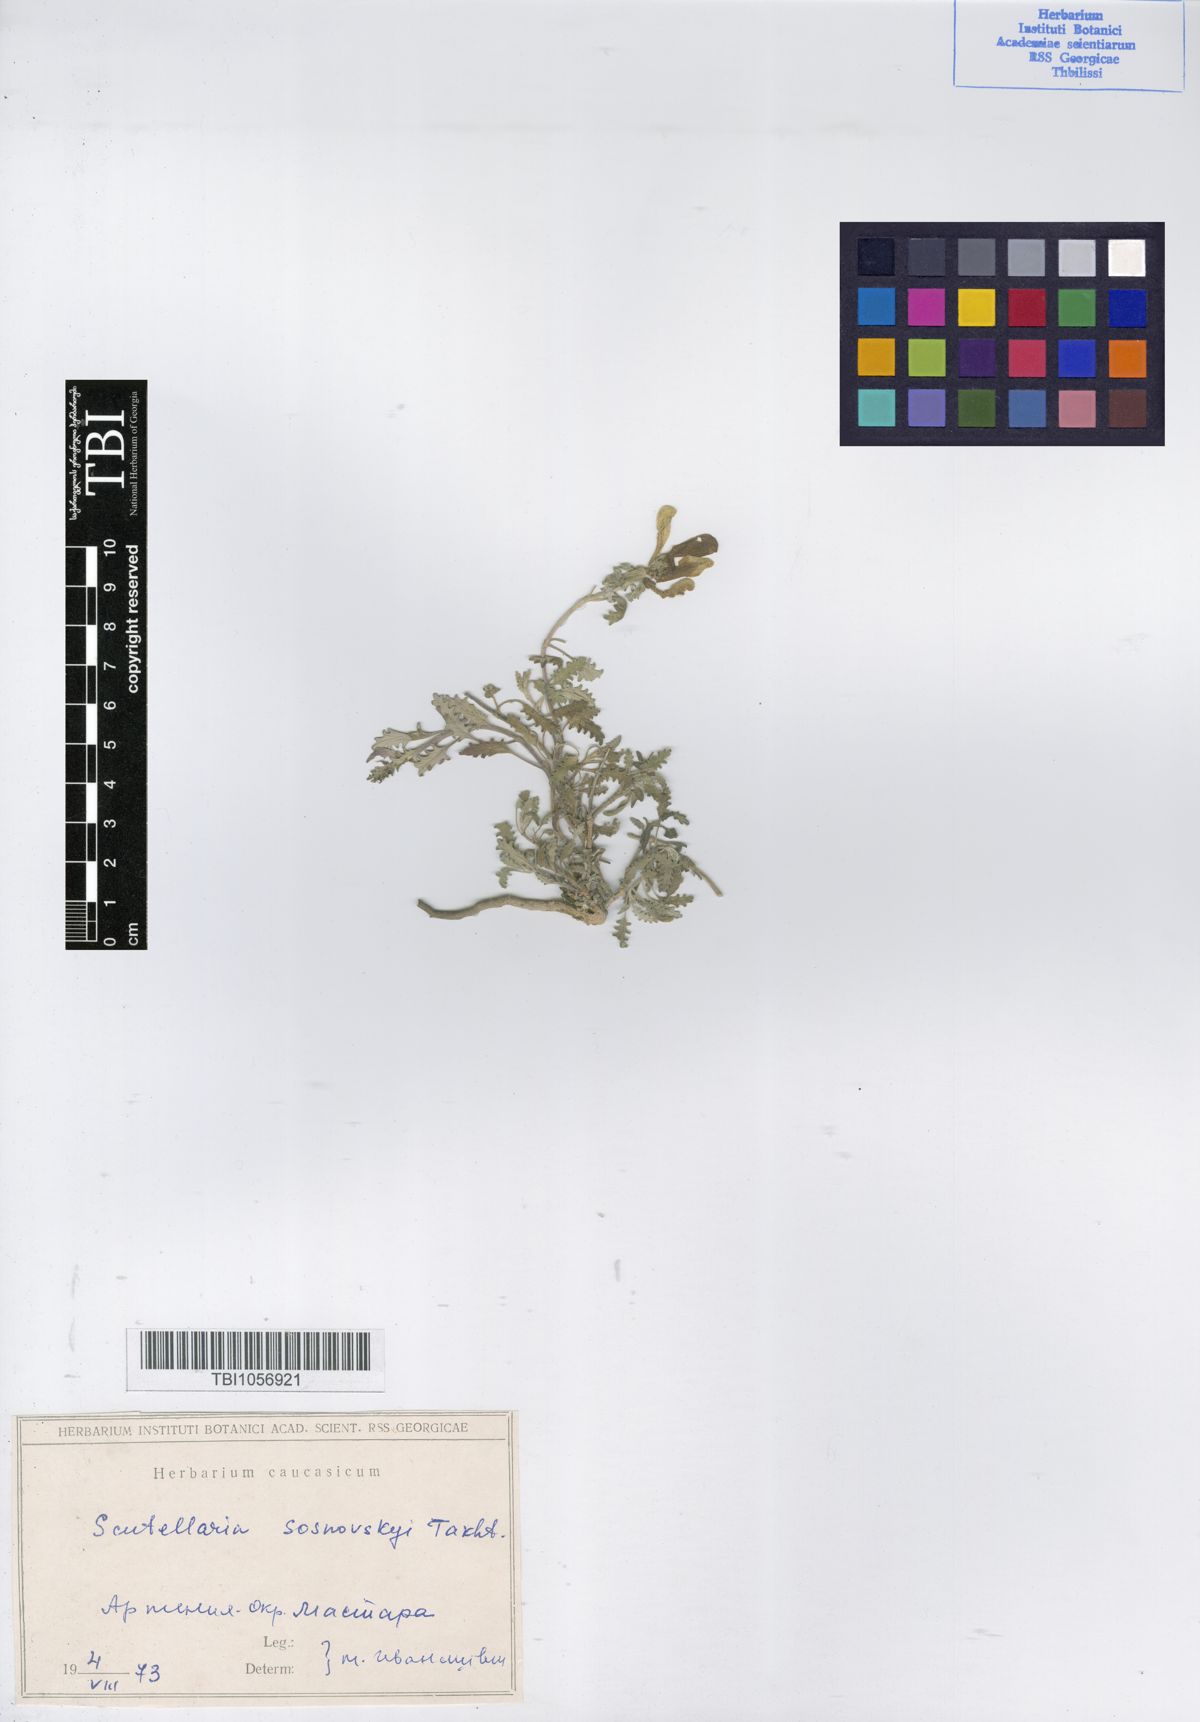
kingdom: Plantae
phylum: Tracheophyta
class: Magnoliopsida
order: Lamiales
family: Lamiaceae
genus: Scutellaria
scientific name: Scutellaria sosnowskyi
